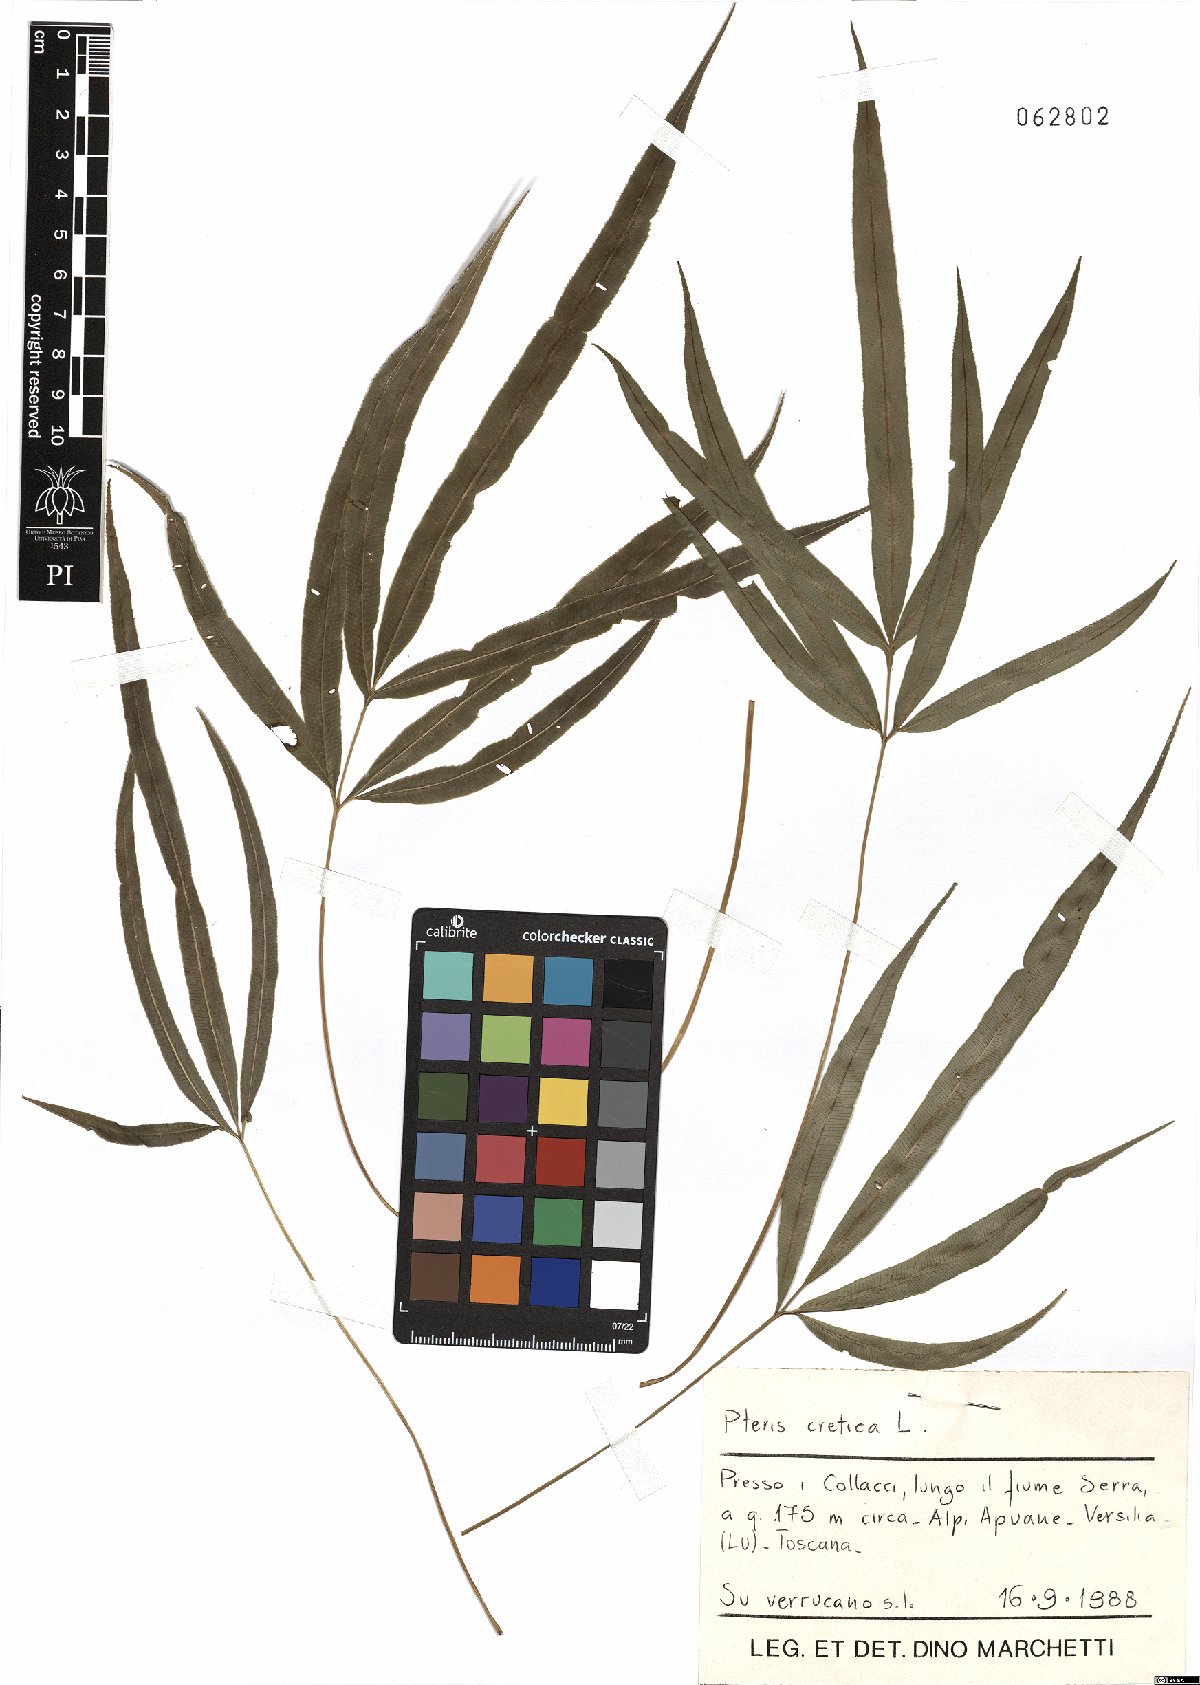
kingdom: Plantae
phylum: Tracheophyta
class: Polypodiopsida
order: Polypodiales
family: Pteridaceae
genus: Pteris
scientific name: Pteris cretica
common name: Ribbon fern
